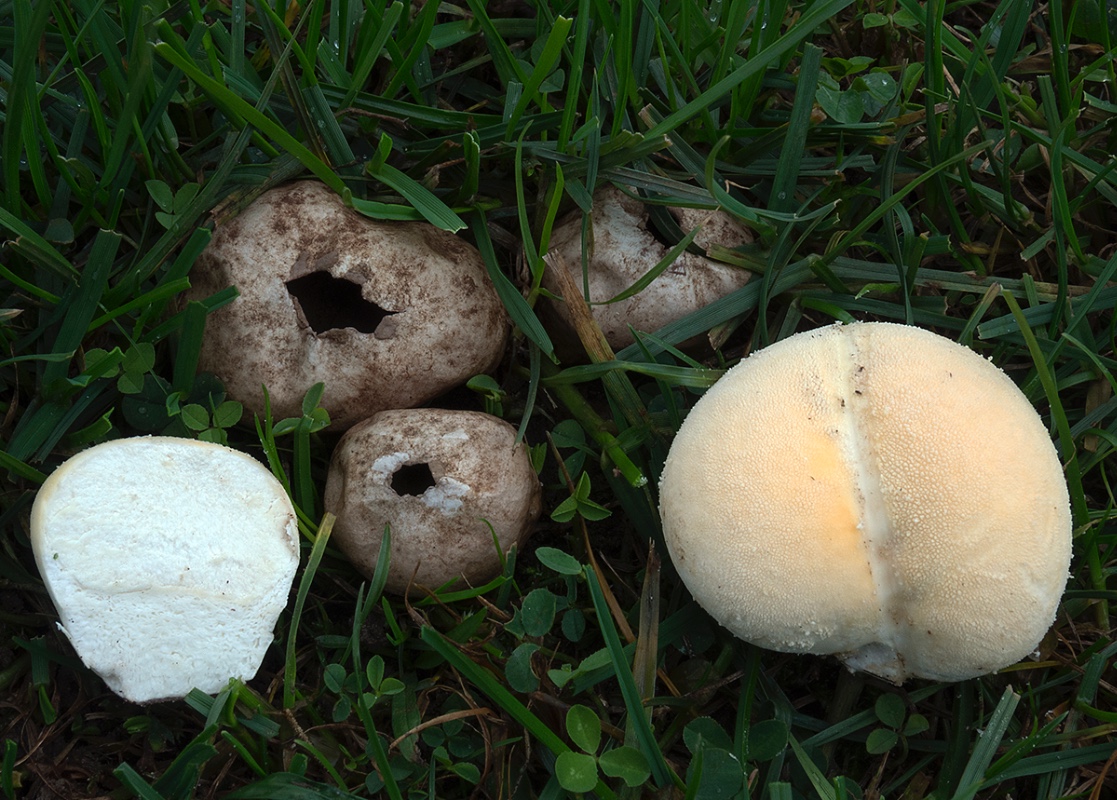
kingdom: Fungi
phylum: Basidiomycota
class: Agaricomycetes
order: Agaricales
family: Lycoperdaceae
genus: Lycoperdon
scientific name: Lycoperdon pratense
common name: flad støvbold
